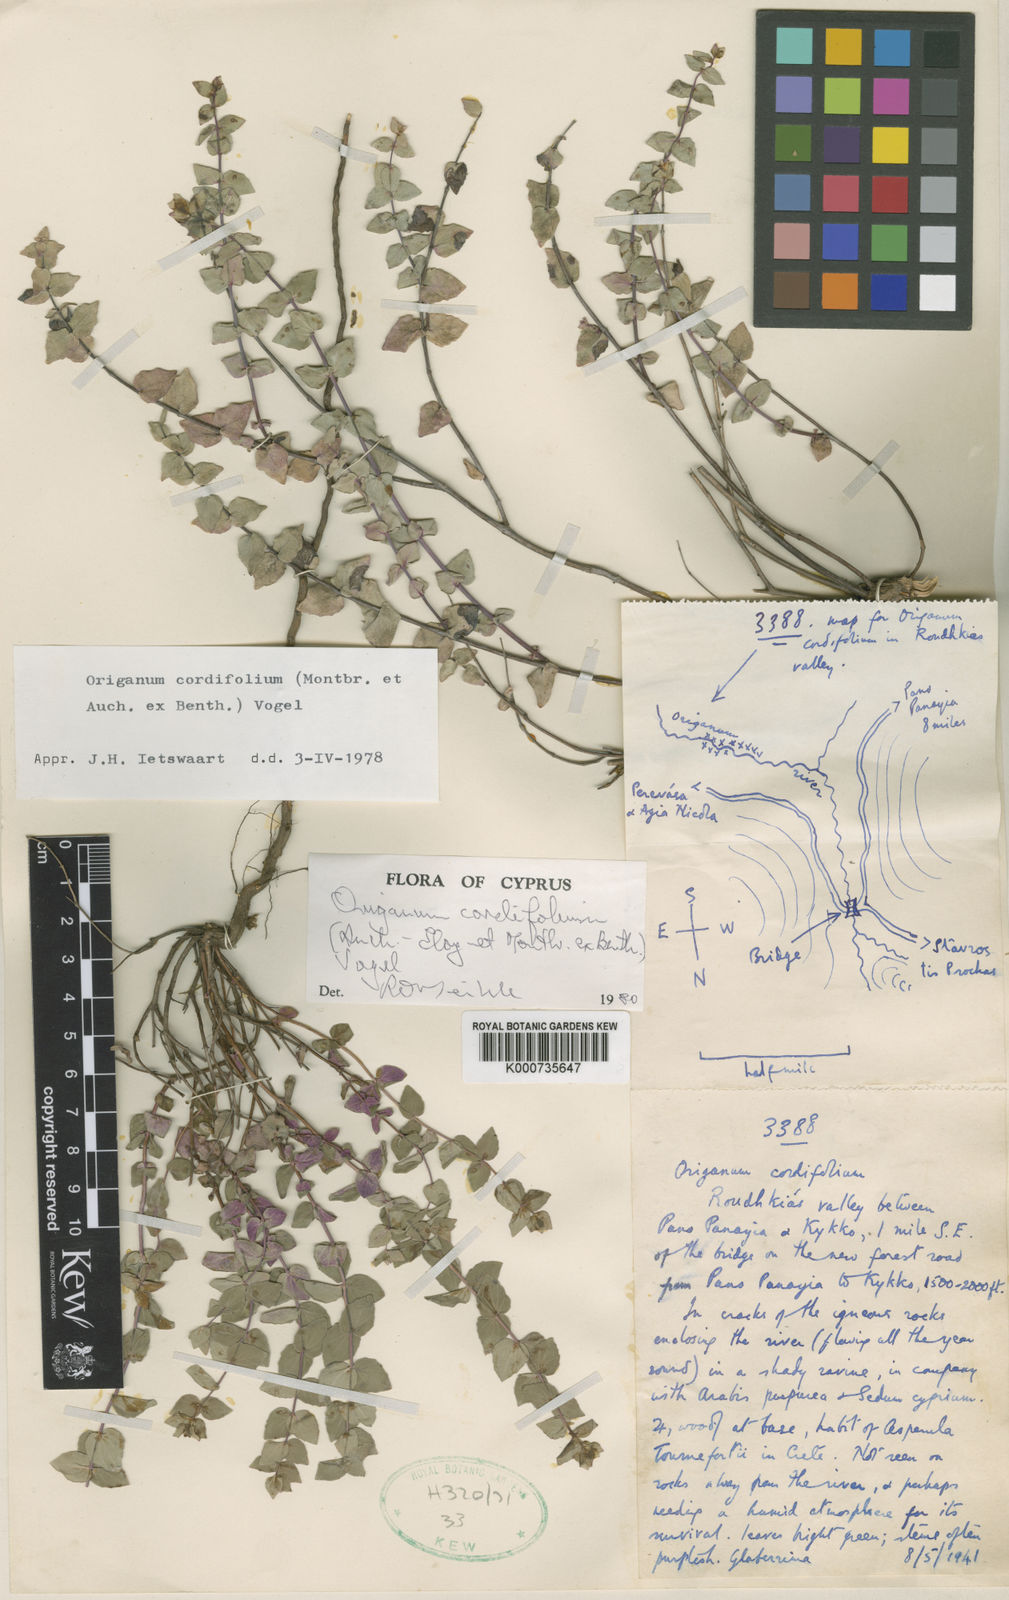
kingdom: Plantae
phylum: Tracheophyta
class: Magnoliopsida
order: Lamiales
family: Lamiaceae
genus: Origanum
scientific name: Origanum majorana
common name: Sweet marjoram
